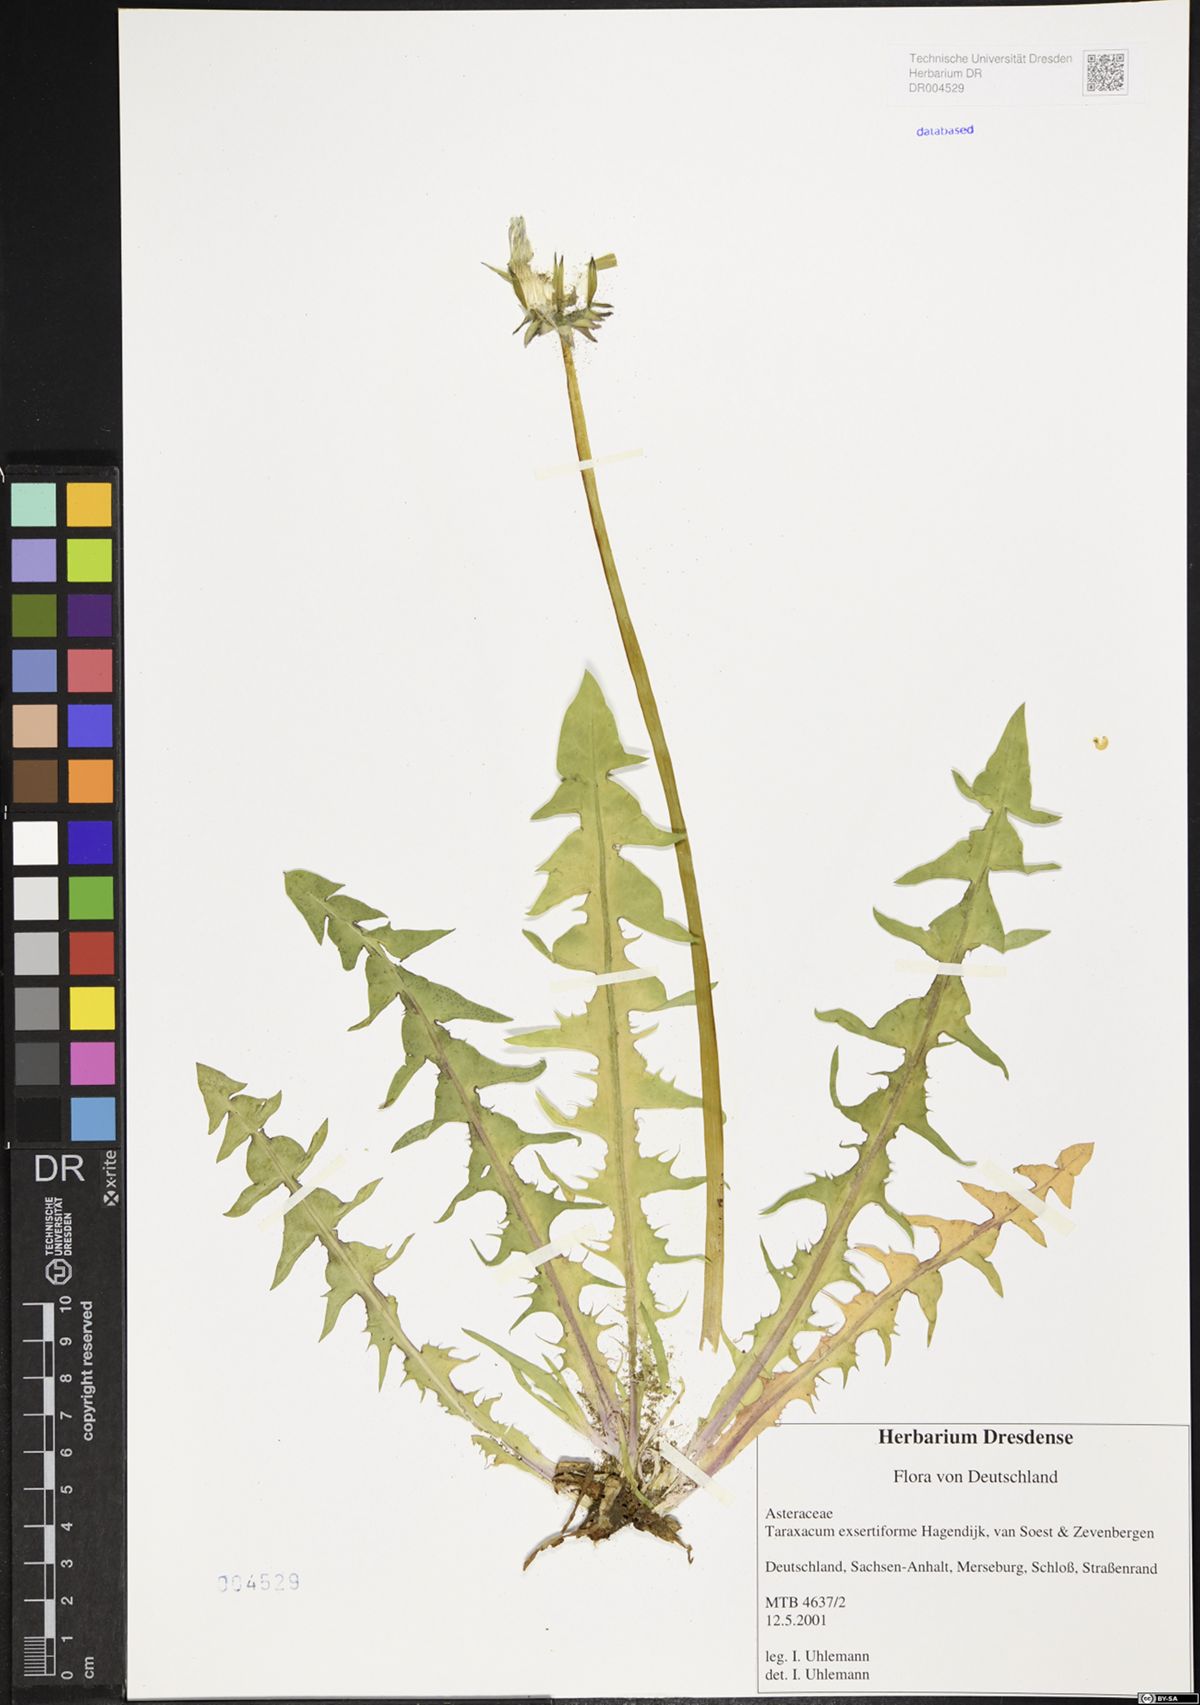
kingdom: Plantae
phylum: Tracheophyta
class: Magnoliopsida
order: Asterales
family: Asteraceae
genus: Taraxacum
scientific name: Taraxacum exsertiforme
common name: Erect-bracted dandelion
